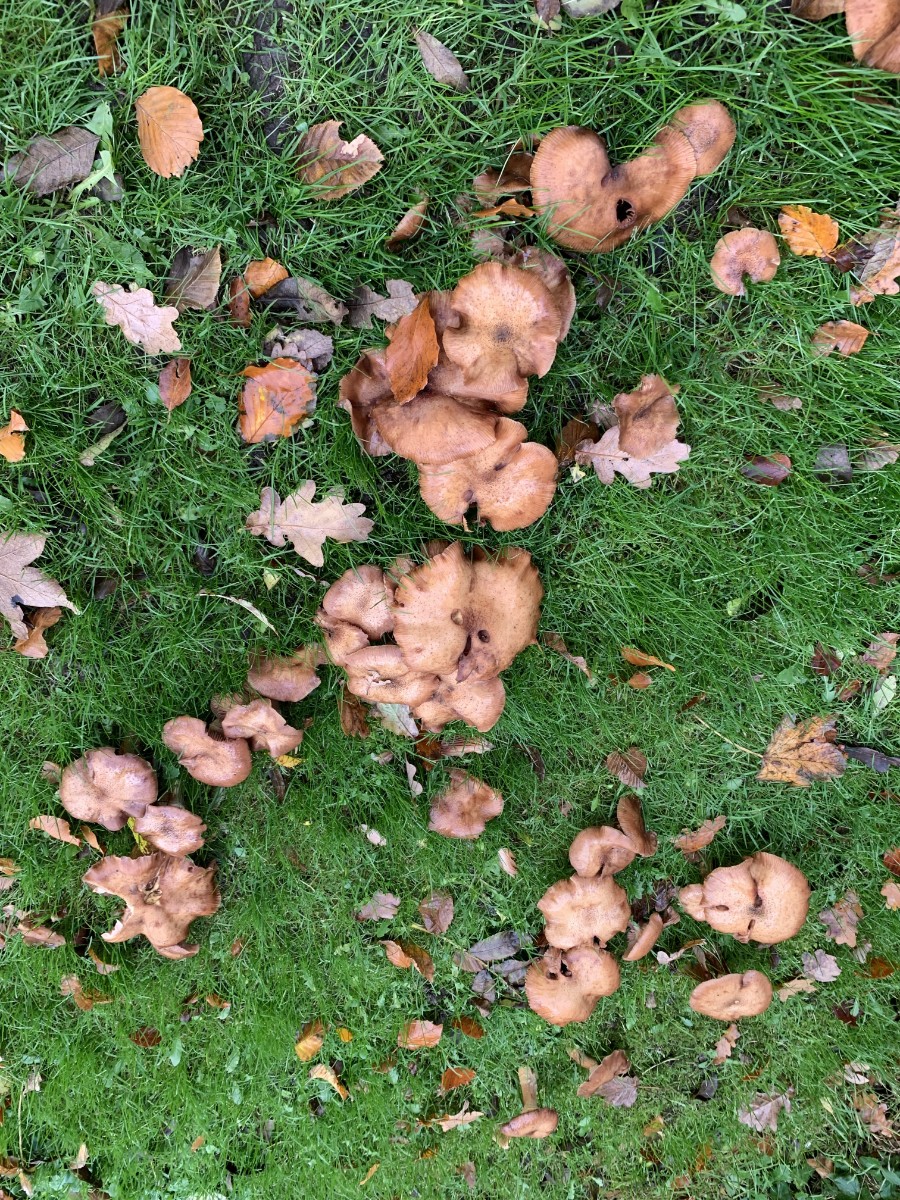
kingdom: Fungi
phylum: Basidiomycota
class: Agaricomycetes
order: Agaricales
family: Physalacriaceae
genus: Armillaria
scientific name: Armillaria
